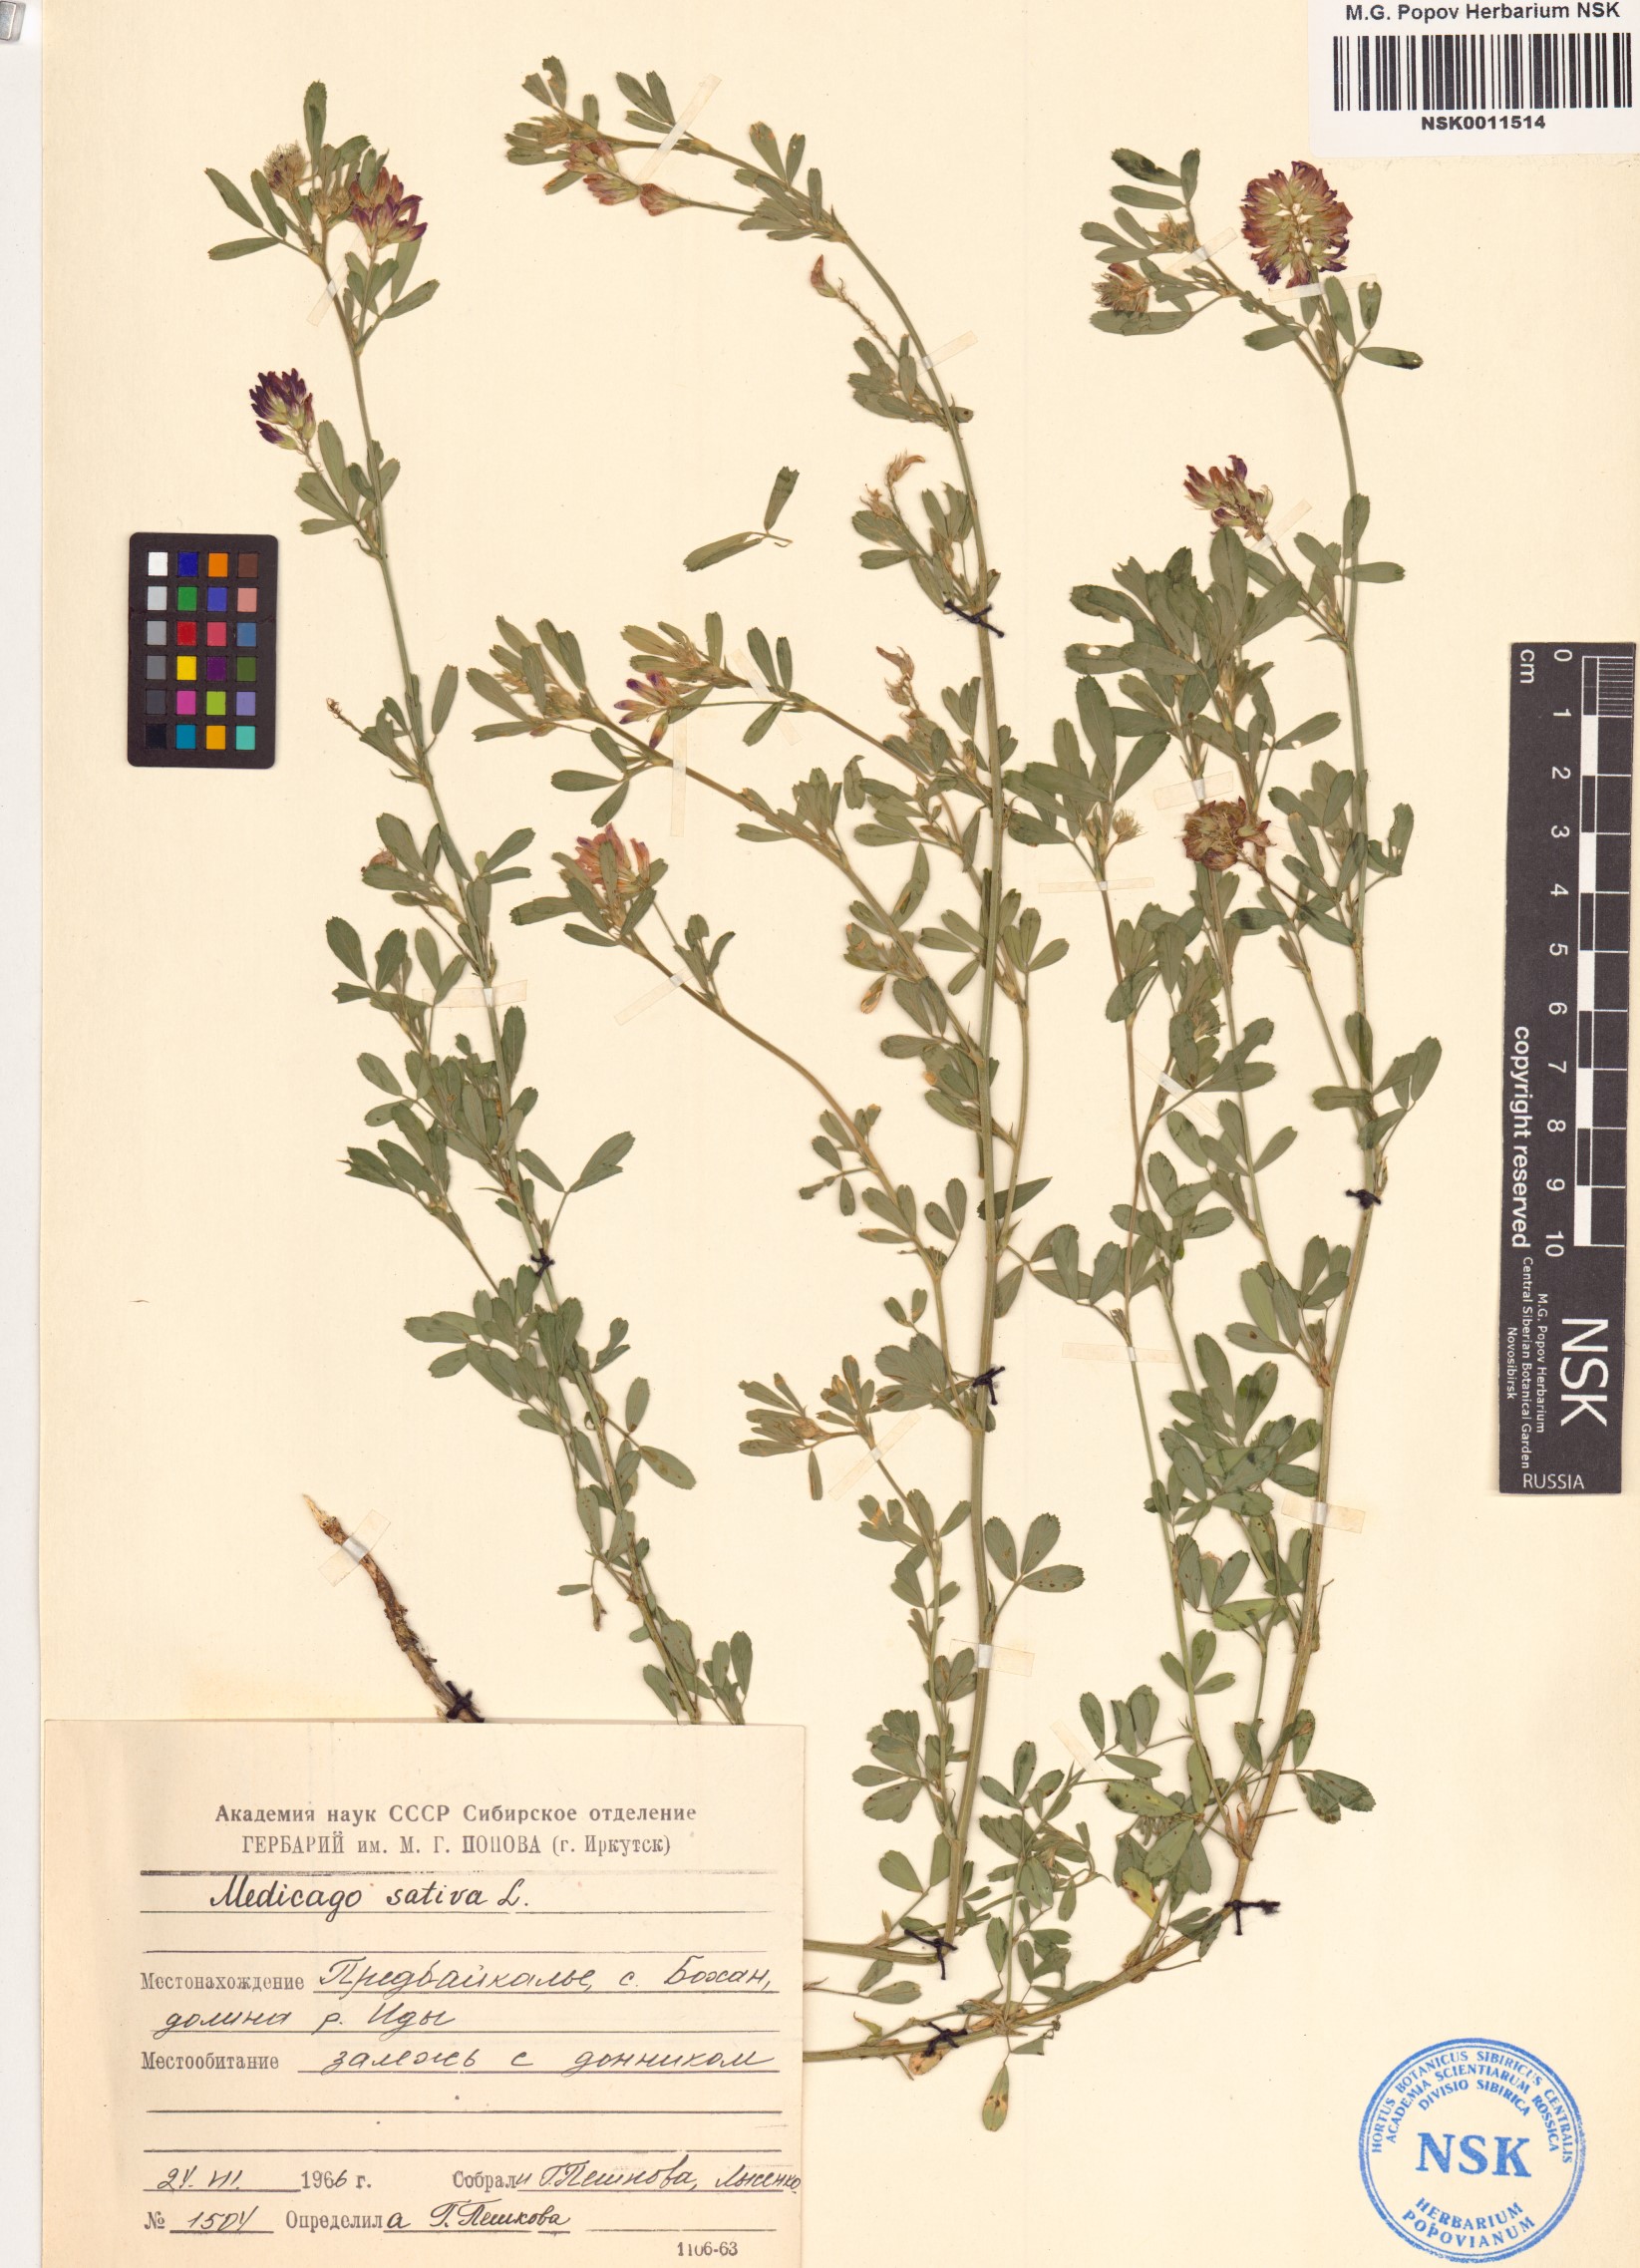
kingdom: Plantae
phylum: Tracheophyta
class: Magnoliopsida
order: Fabales
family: Fabaceae
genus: Medicago
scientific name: Medicago sativa
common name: Alfalfa
